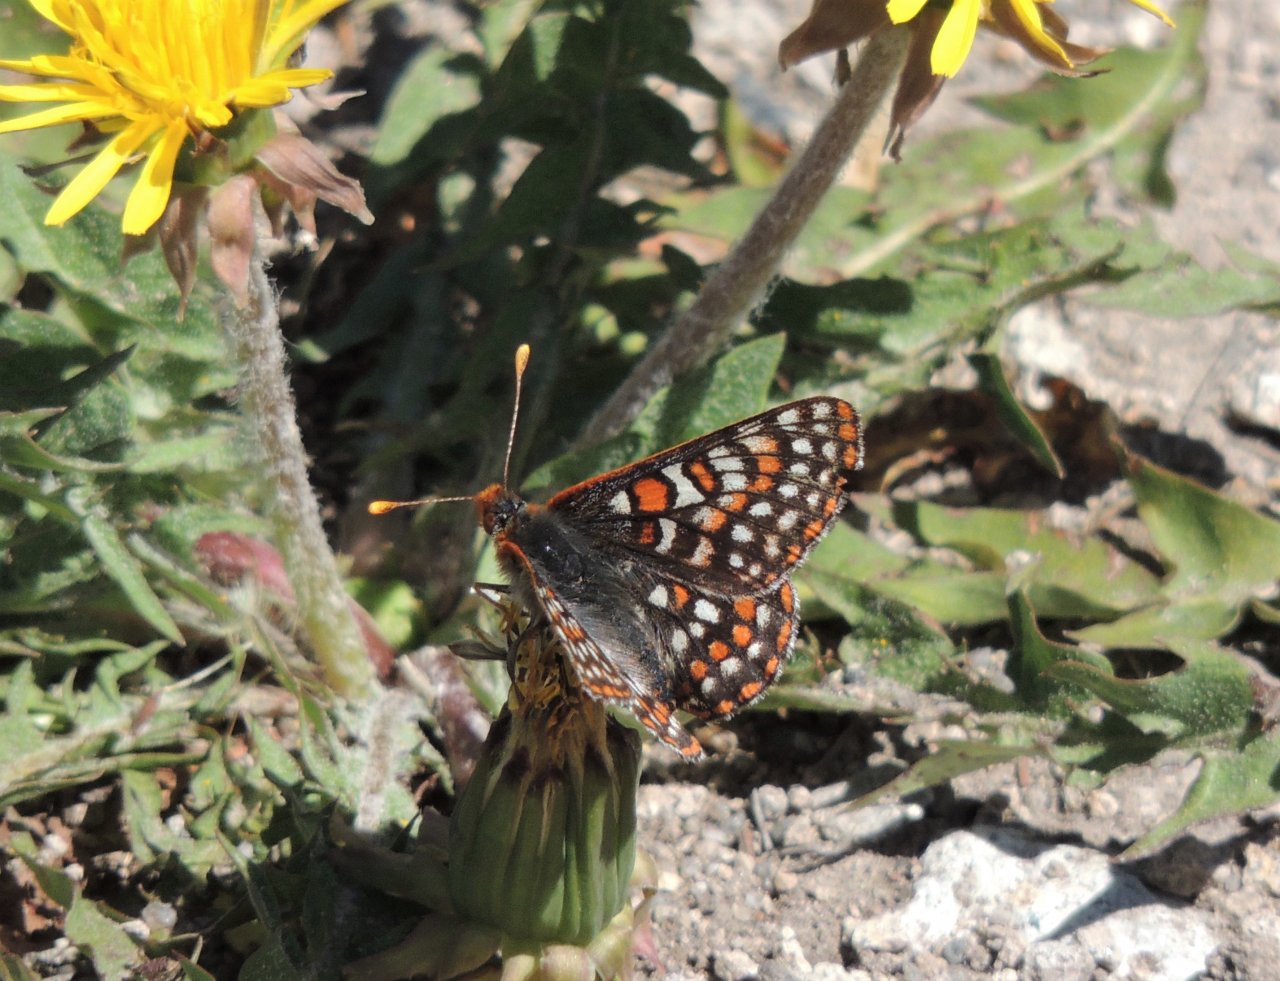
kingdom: Animalia
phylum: Arthropoda
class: Insecta
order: Lepidoptera
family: Nymphalidae
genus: Occidryas
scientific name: Occidryas anicia
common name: Anicia Checkerspot
